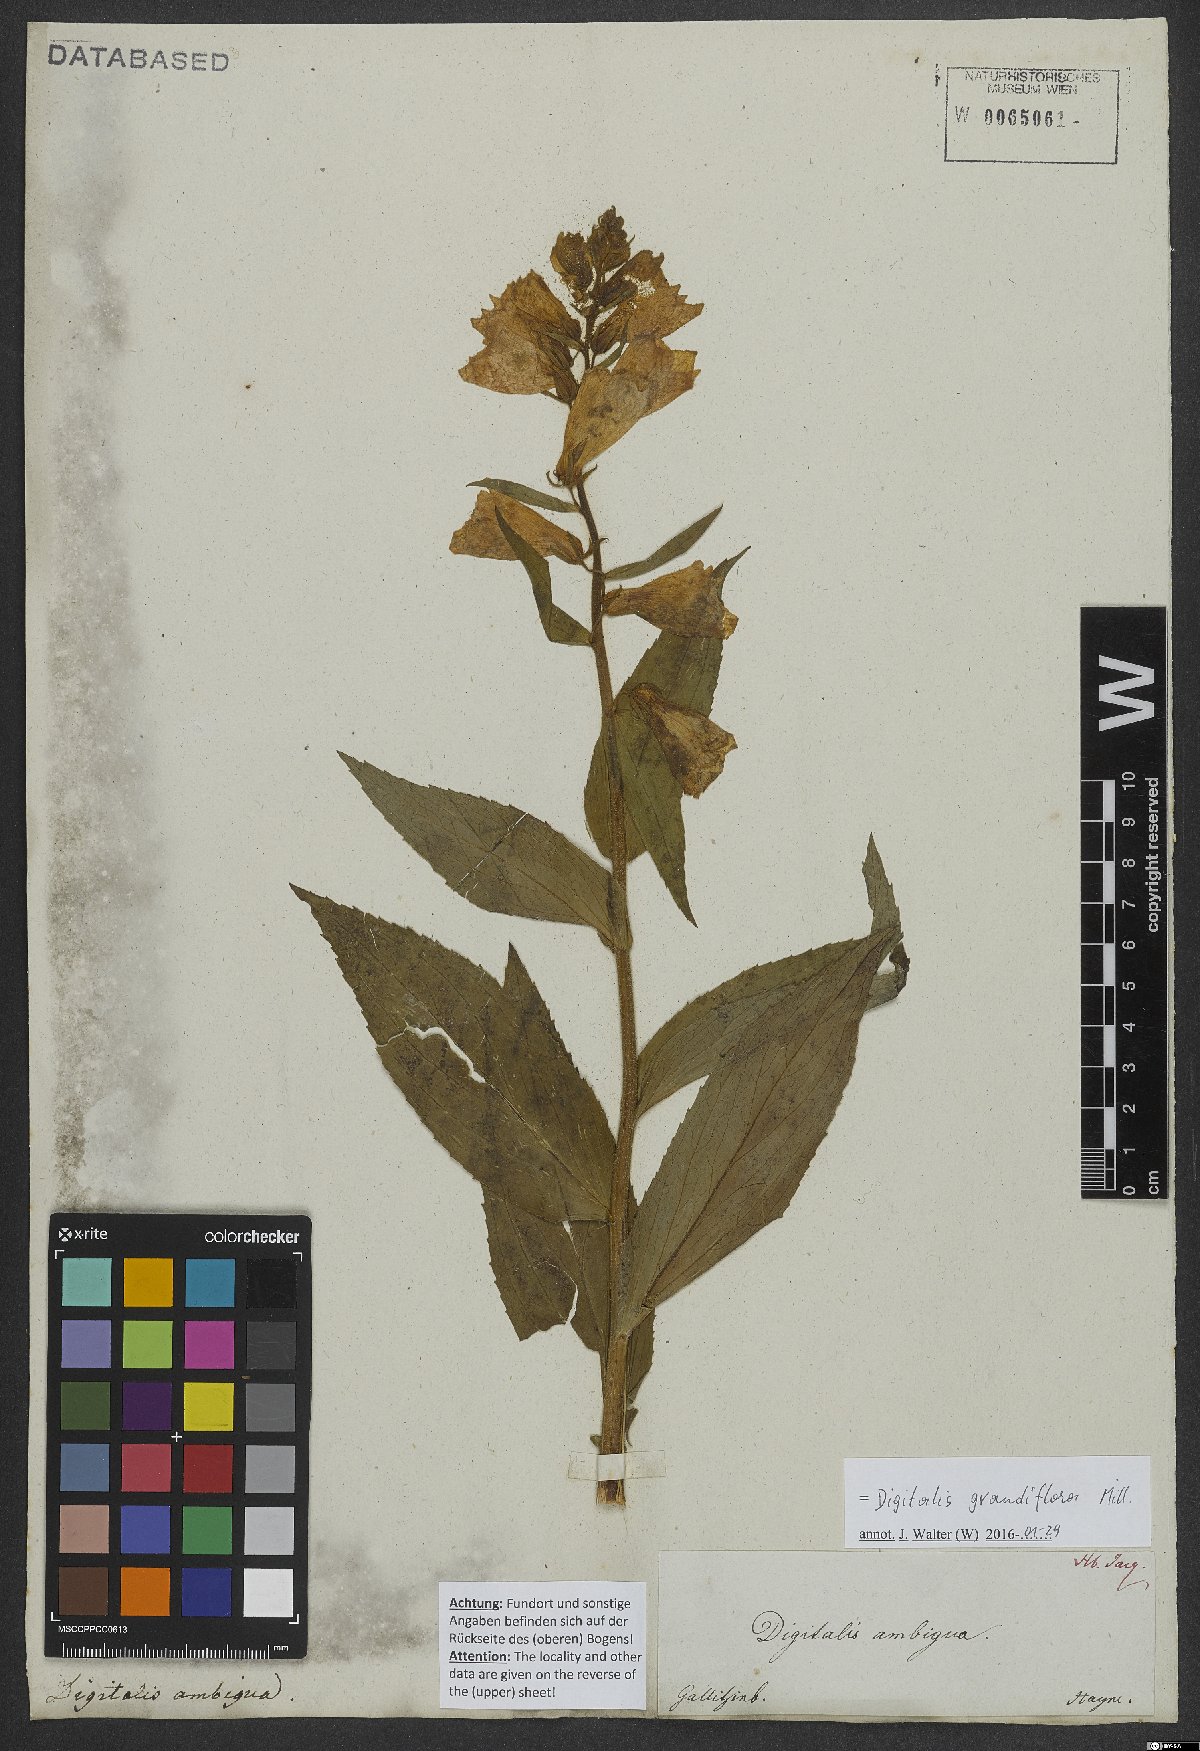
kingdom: Plantae
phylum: Tracheophyta
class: Magnoliopsida
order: Lamiales
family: Plantaginaceae
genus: Digitalis
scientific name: Digitalis grandiflora
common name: Yellow foxglove
